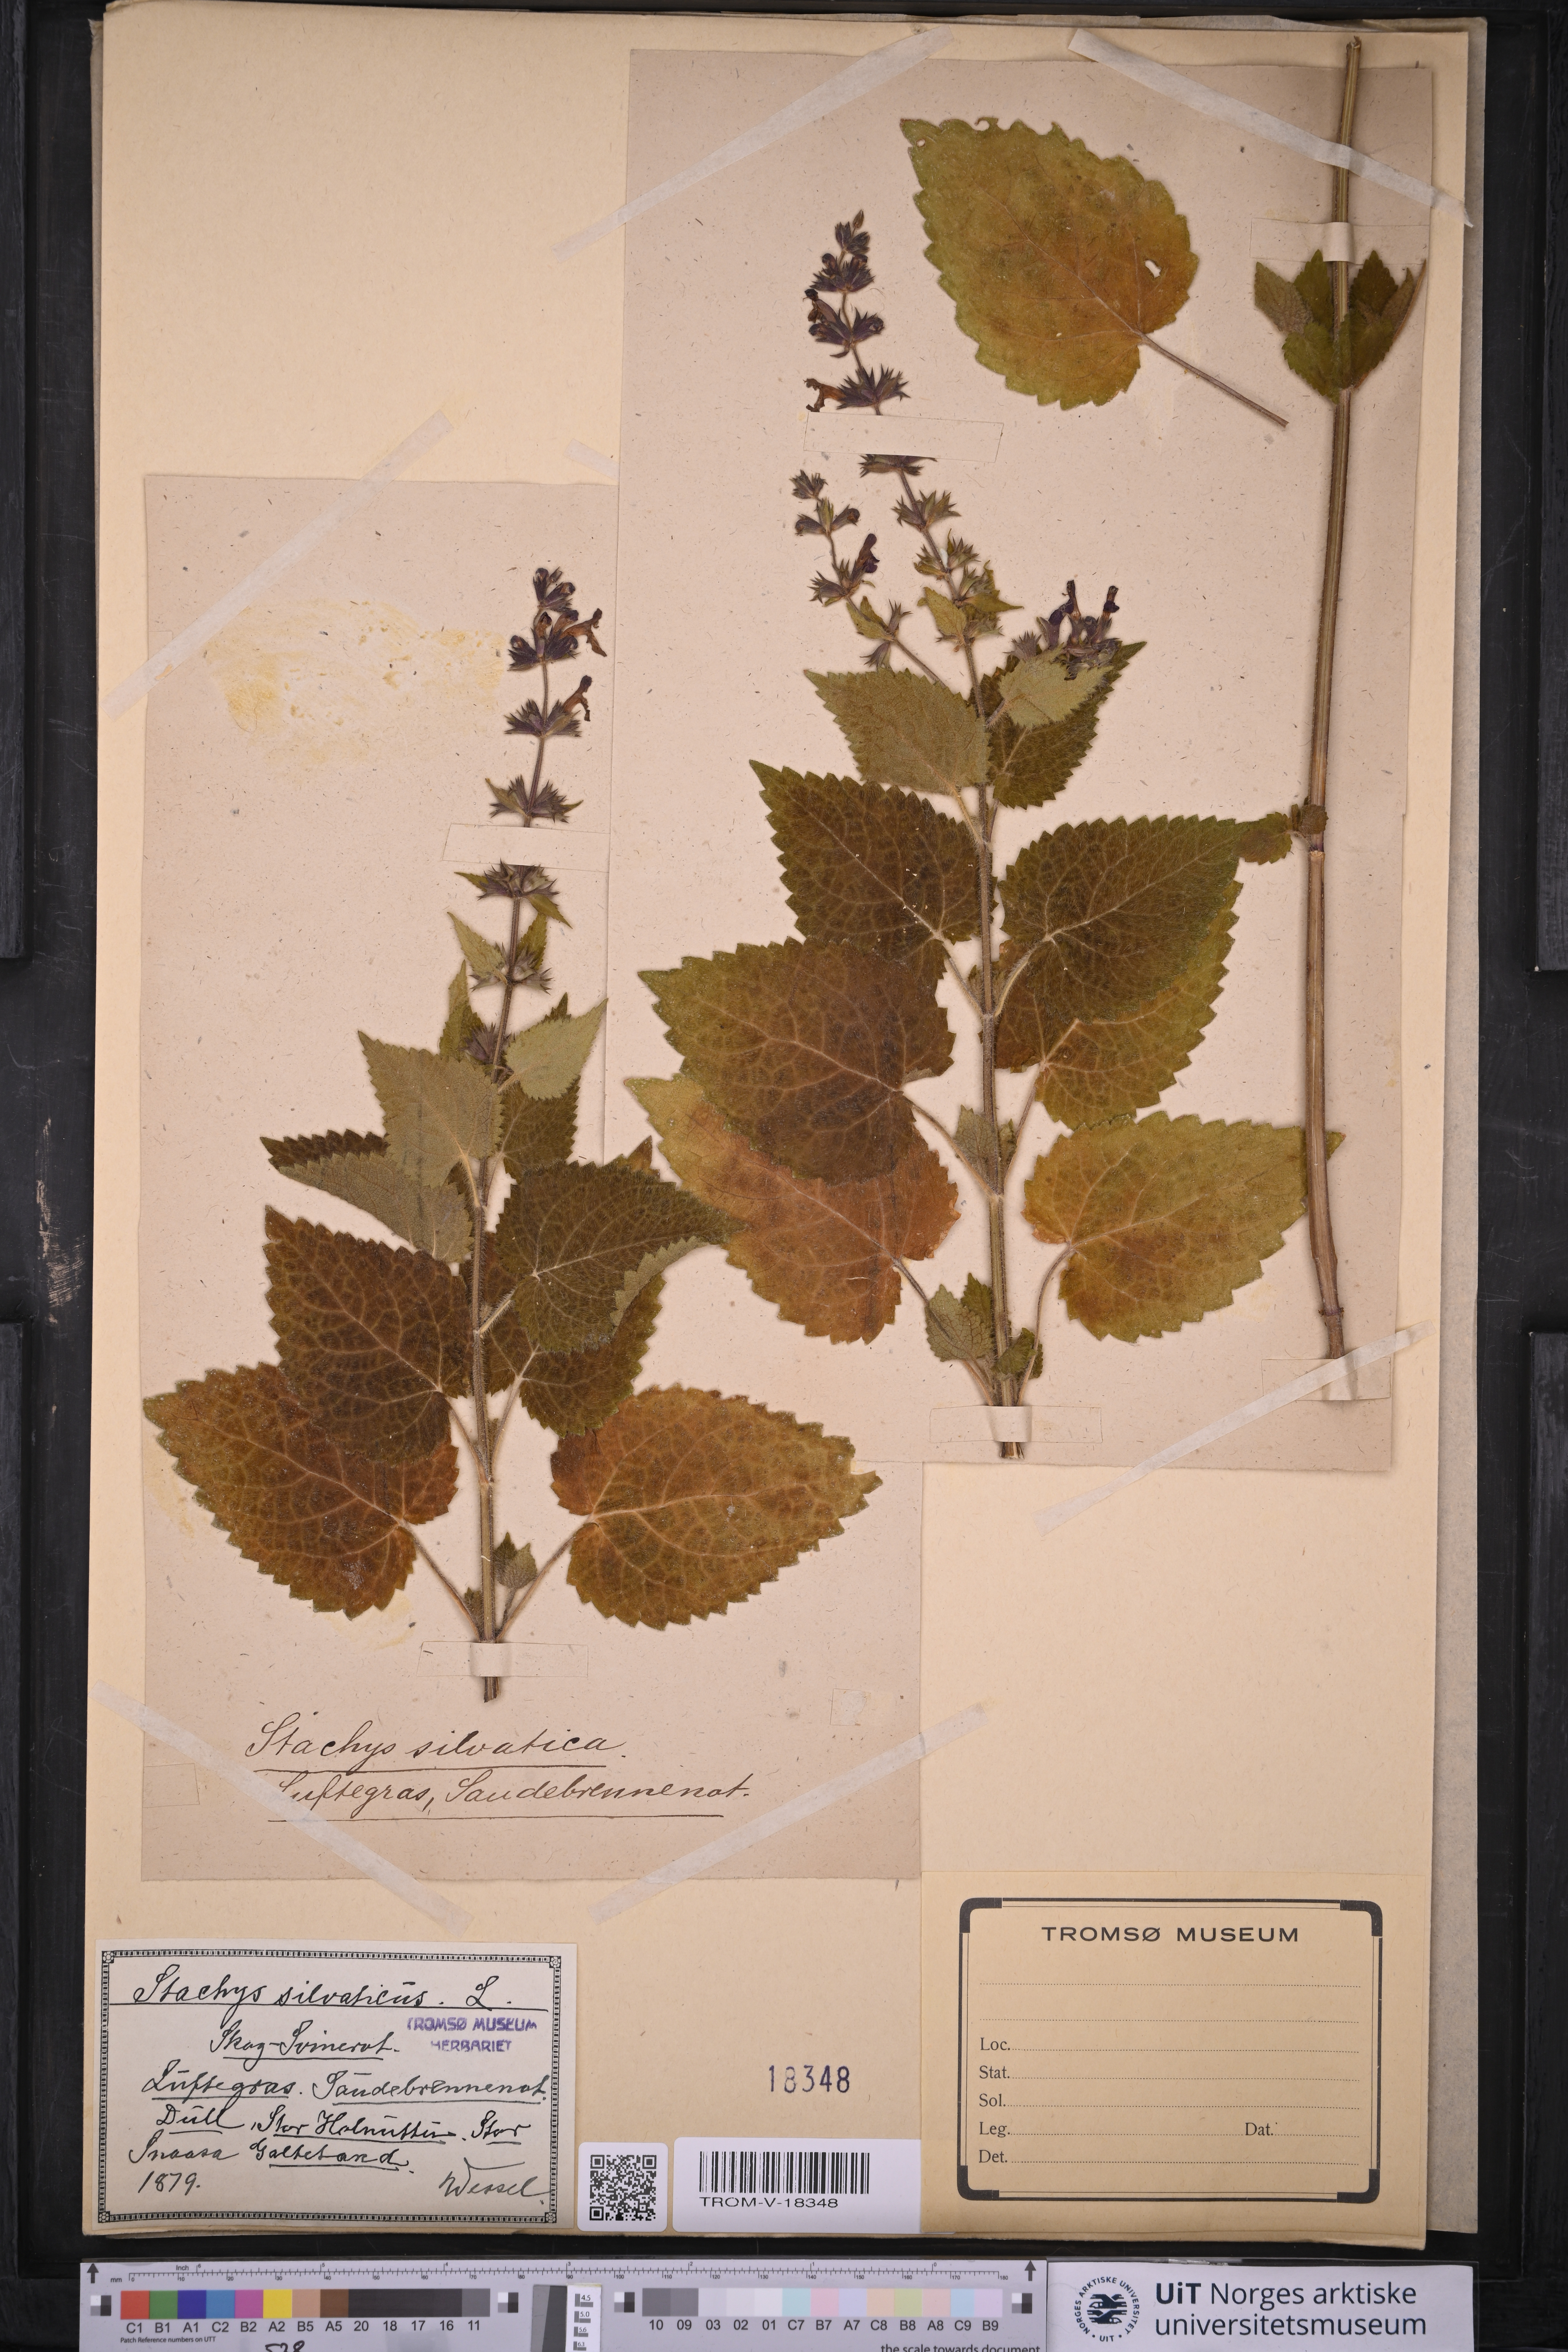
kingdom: Plantae
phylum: Tracheophyta
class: Magnoliopsida
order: Lamiales
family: Lamiaceae
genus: Stachys
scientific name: Stachys sylvatica
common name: Hedge woundwort
